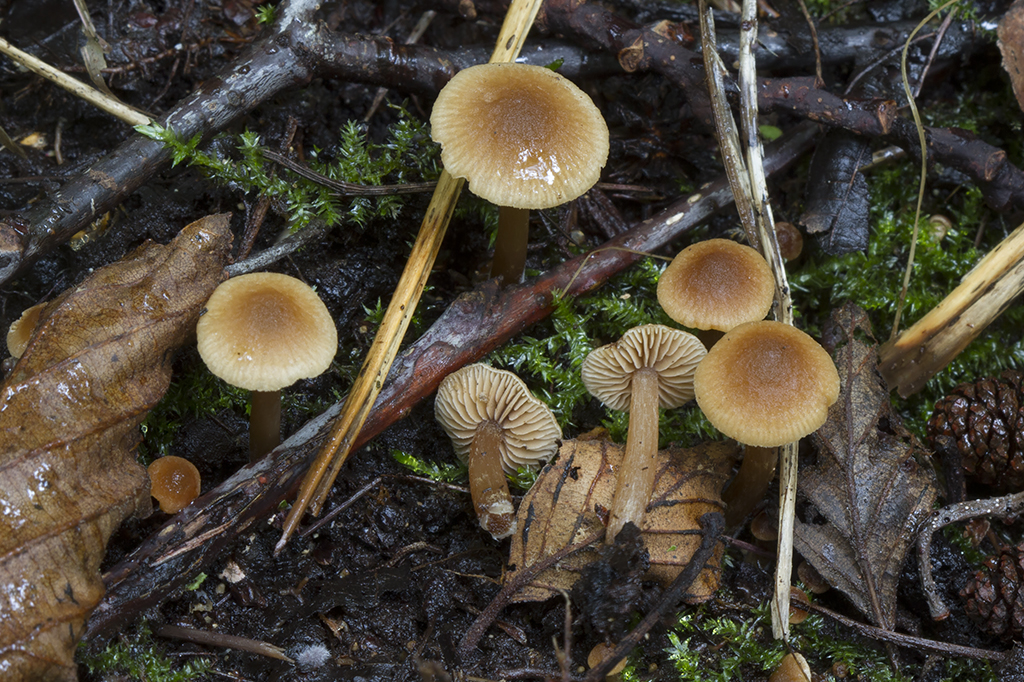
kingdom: Fungi
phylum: Basidiomycota
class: Agaricomycetes
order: Agaricales
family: Hymenogastraceae
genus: Naucoria
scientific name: Naucoria subconspersa
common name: filtet knaphat
